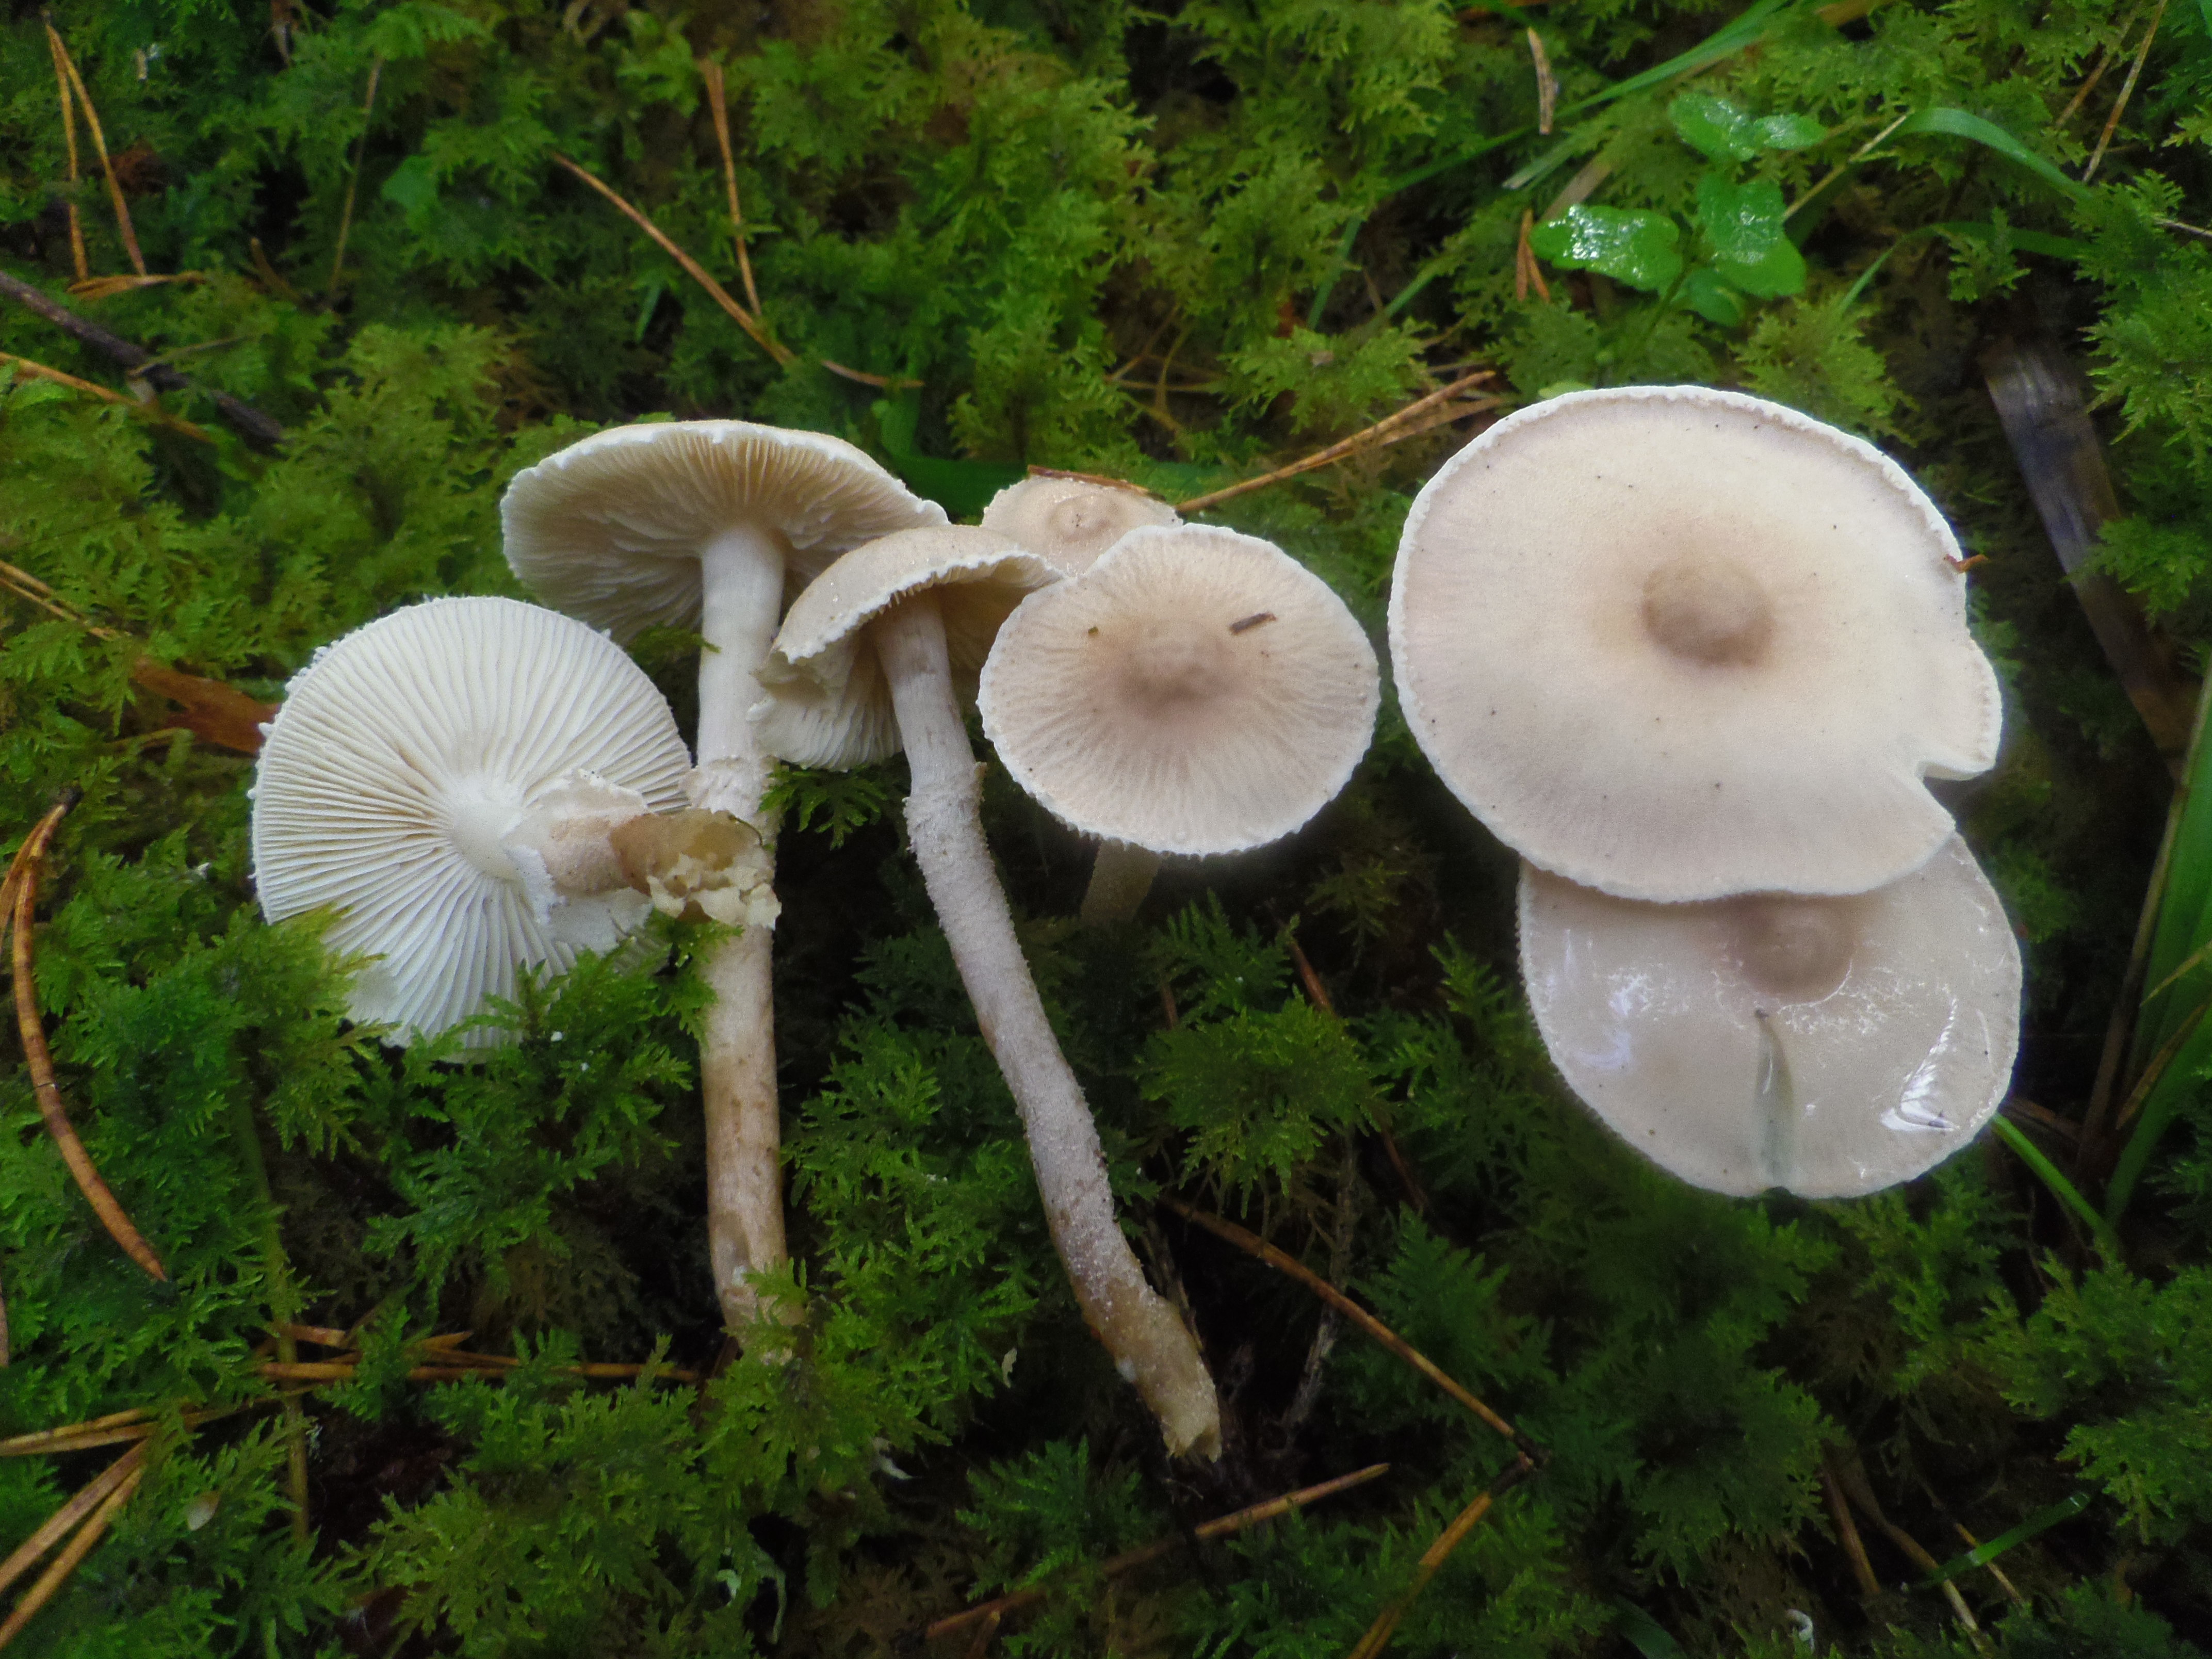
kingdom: Fungi
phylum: Basidiomycota
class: Agaricomycetes
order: Agaricales
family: Tricholomataceae
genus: Cystoderma
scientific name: Cystoderma carcharias
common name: Pearly powdercap
